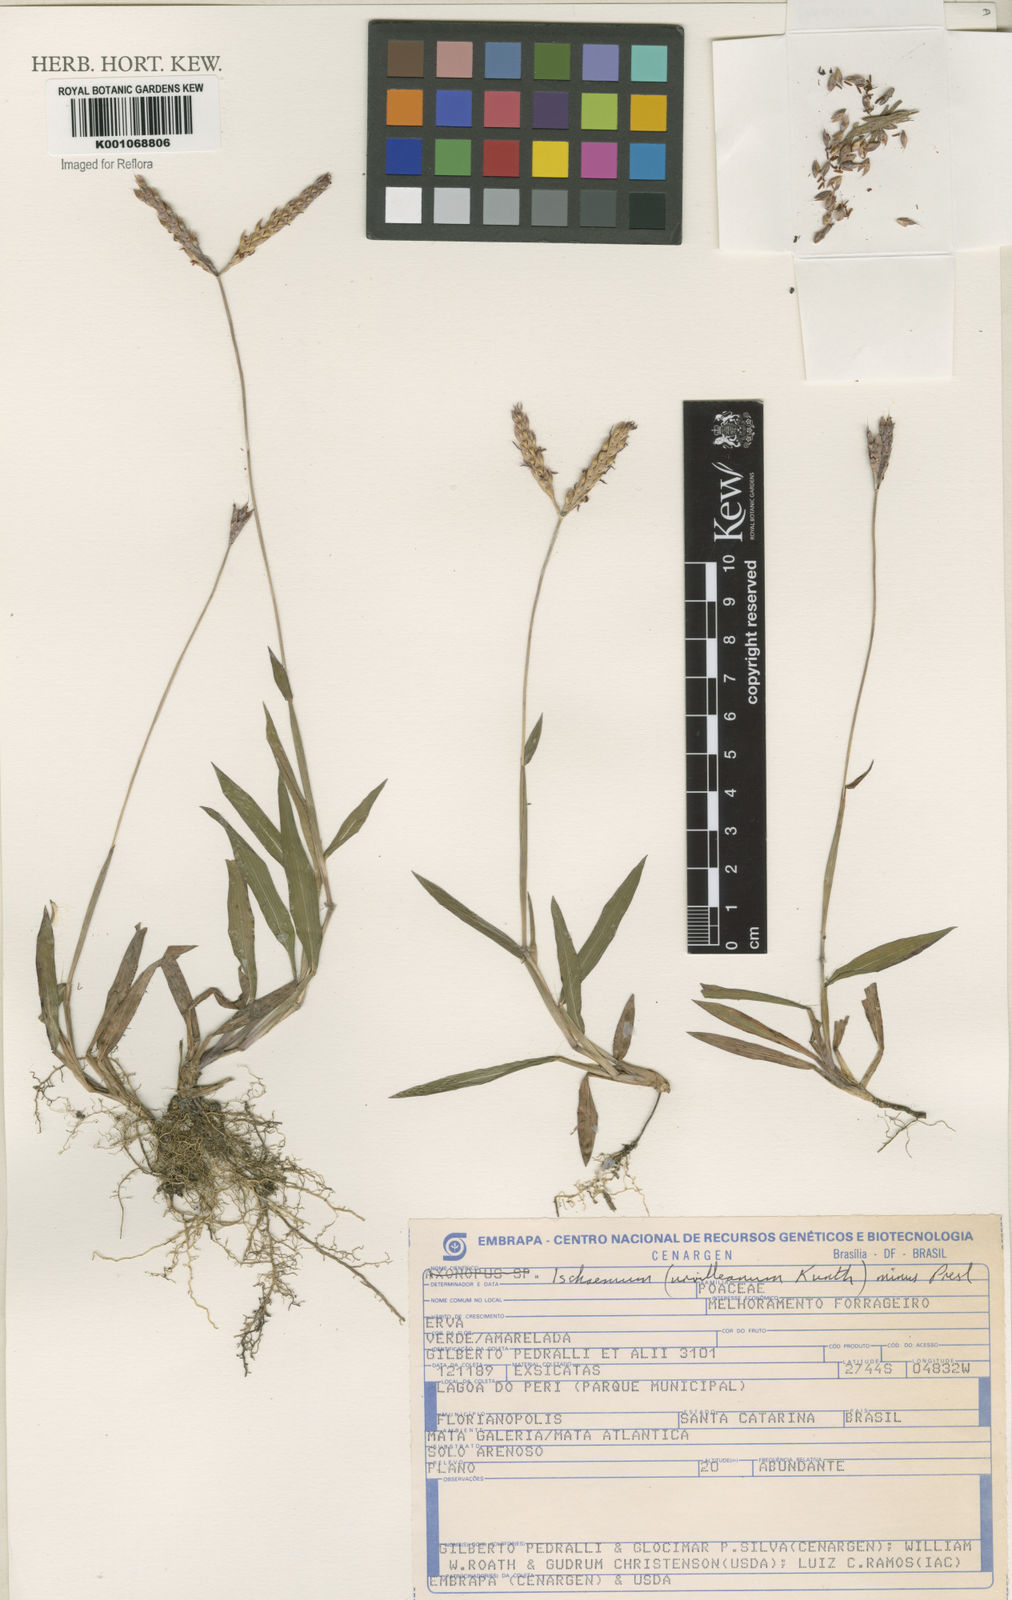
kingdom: Plantae
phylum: Tracheophyta
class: Liliopsida
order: Poales
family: Poaceae
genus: Ischaemum
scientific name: Ischaemum latifolium
